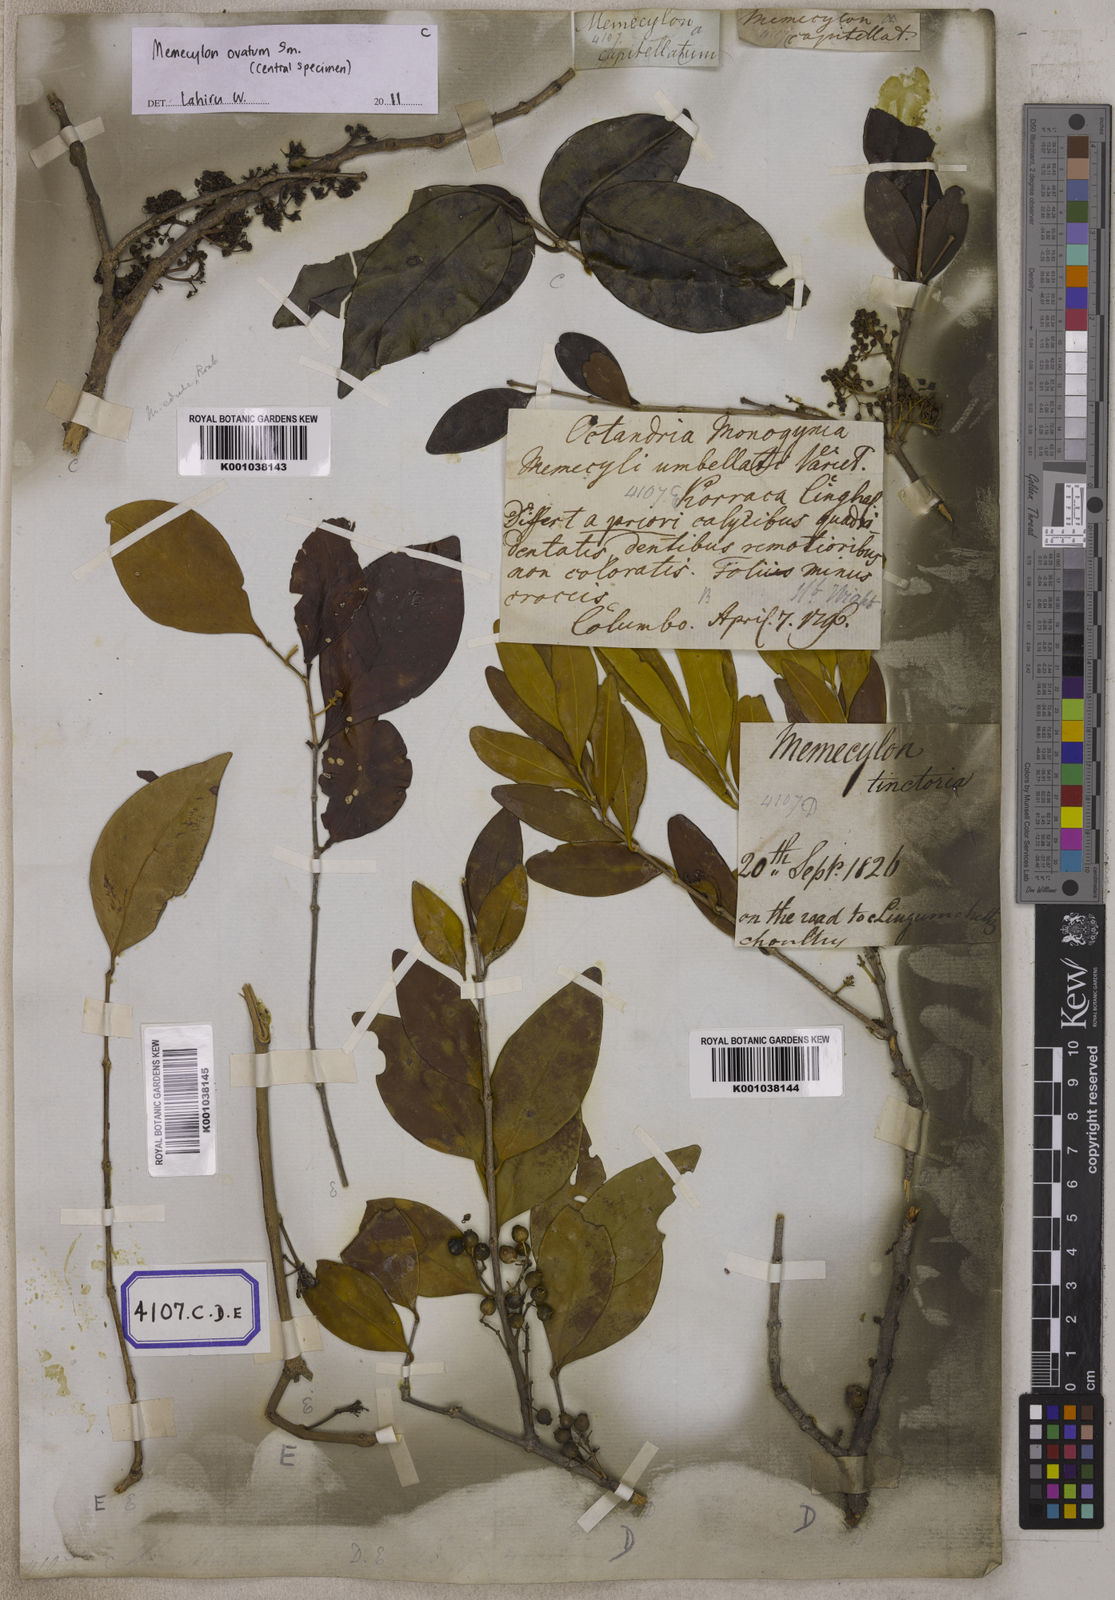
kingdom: Plantae
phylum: Tracheophyta
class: Magnoliopsida
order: Myrtales
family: Melastomataceae
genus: Memecylon
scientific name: Memecylon edule
